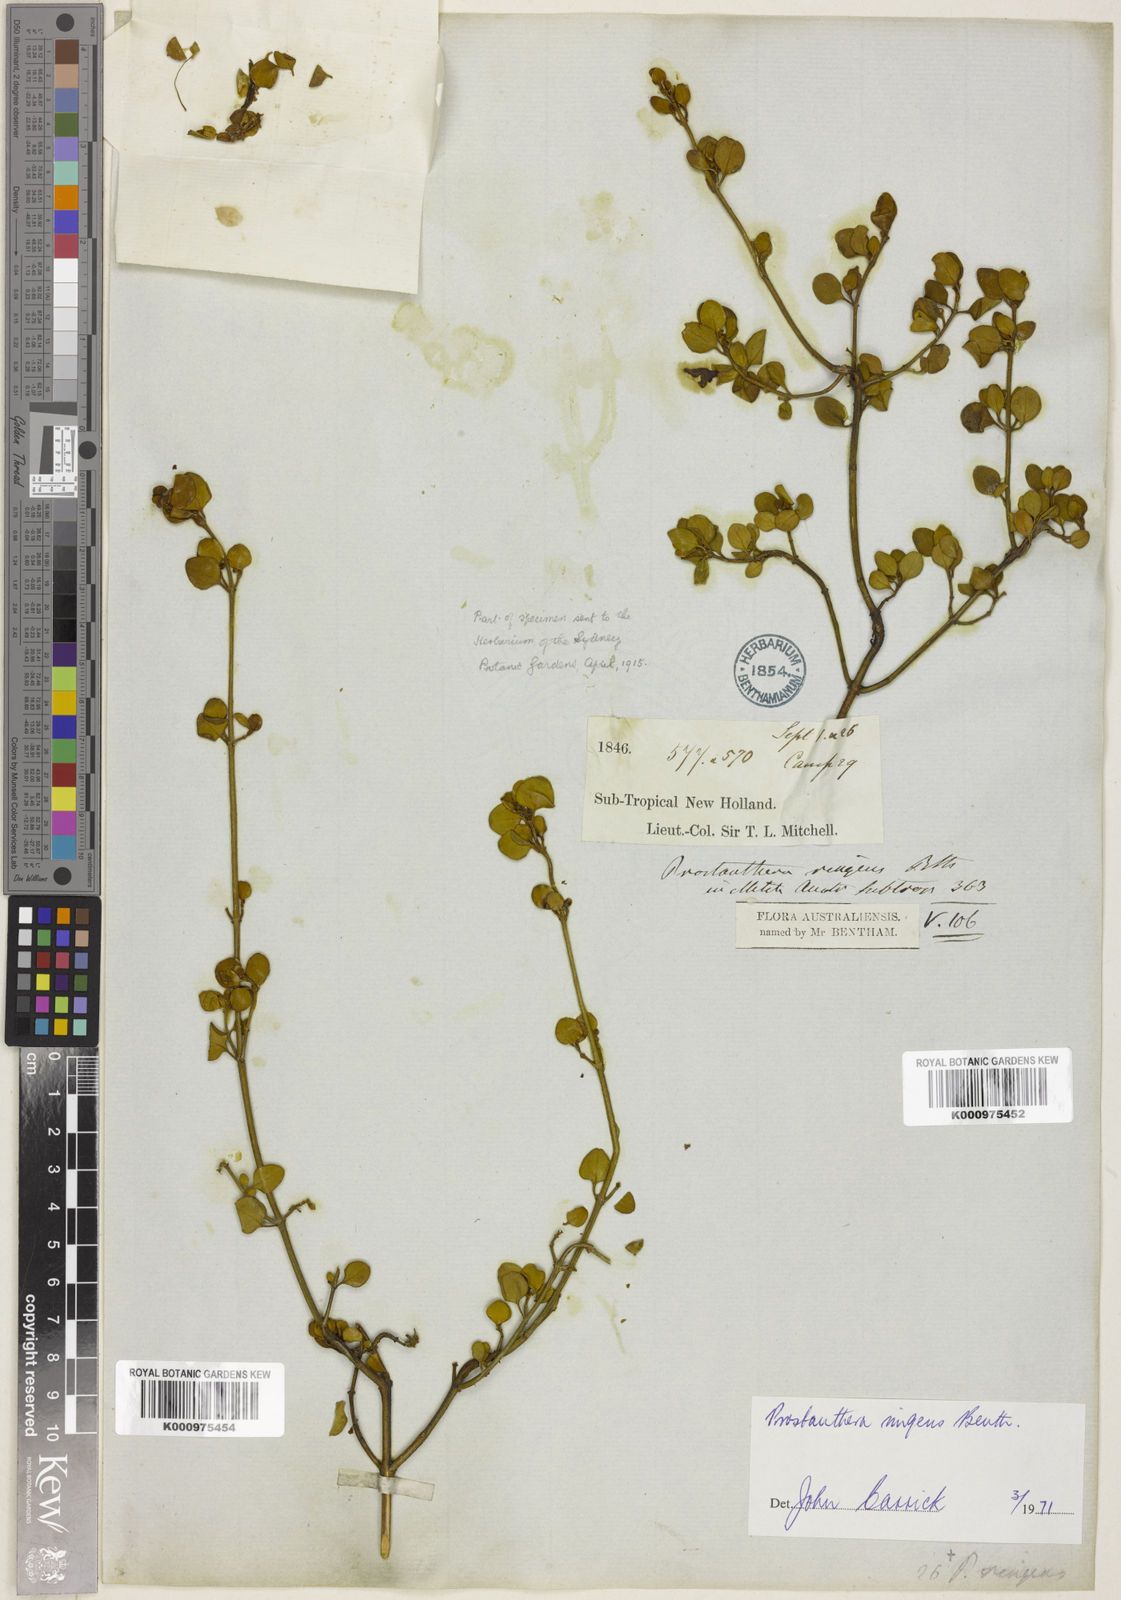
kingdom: Plantae
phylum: Tracheophyta
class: Magnoliopsida
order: Lamiales
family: Lamiaceae
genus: Prostanthera
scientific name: Prostanthera ringens
